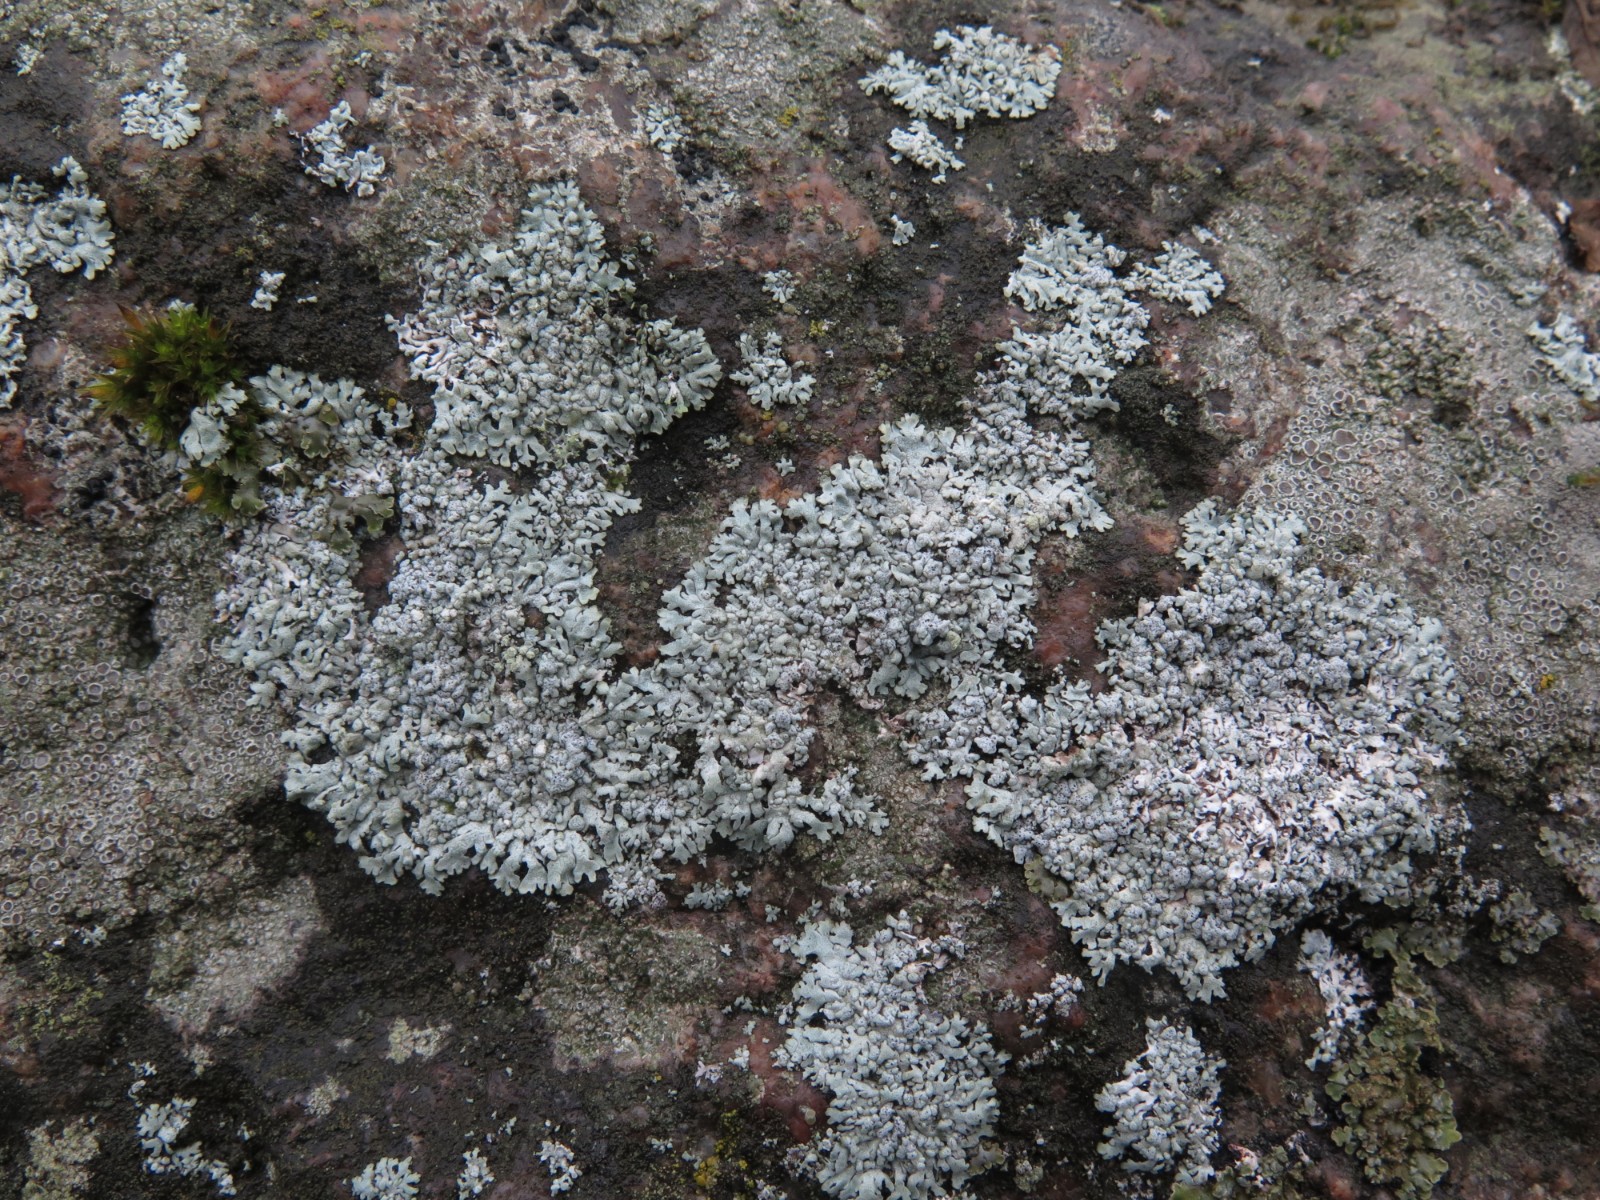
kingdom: Fungi
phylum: Ascomycota
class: Lecanoromycetes
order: Caliciales
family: Physciaceae
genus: Physcia
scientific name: Physcia caesia
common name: blågrå rosetlav
